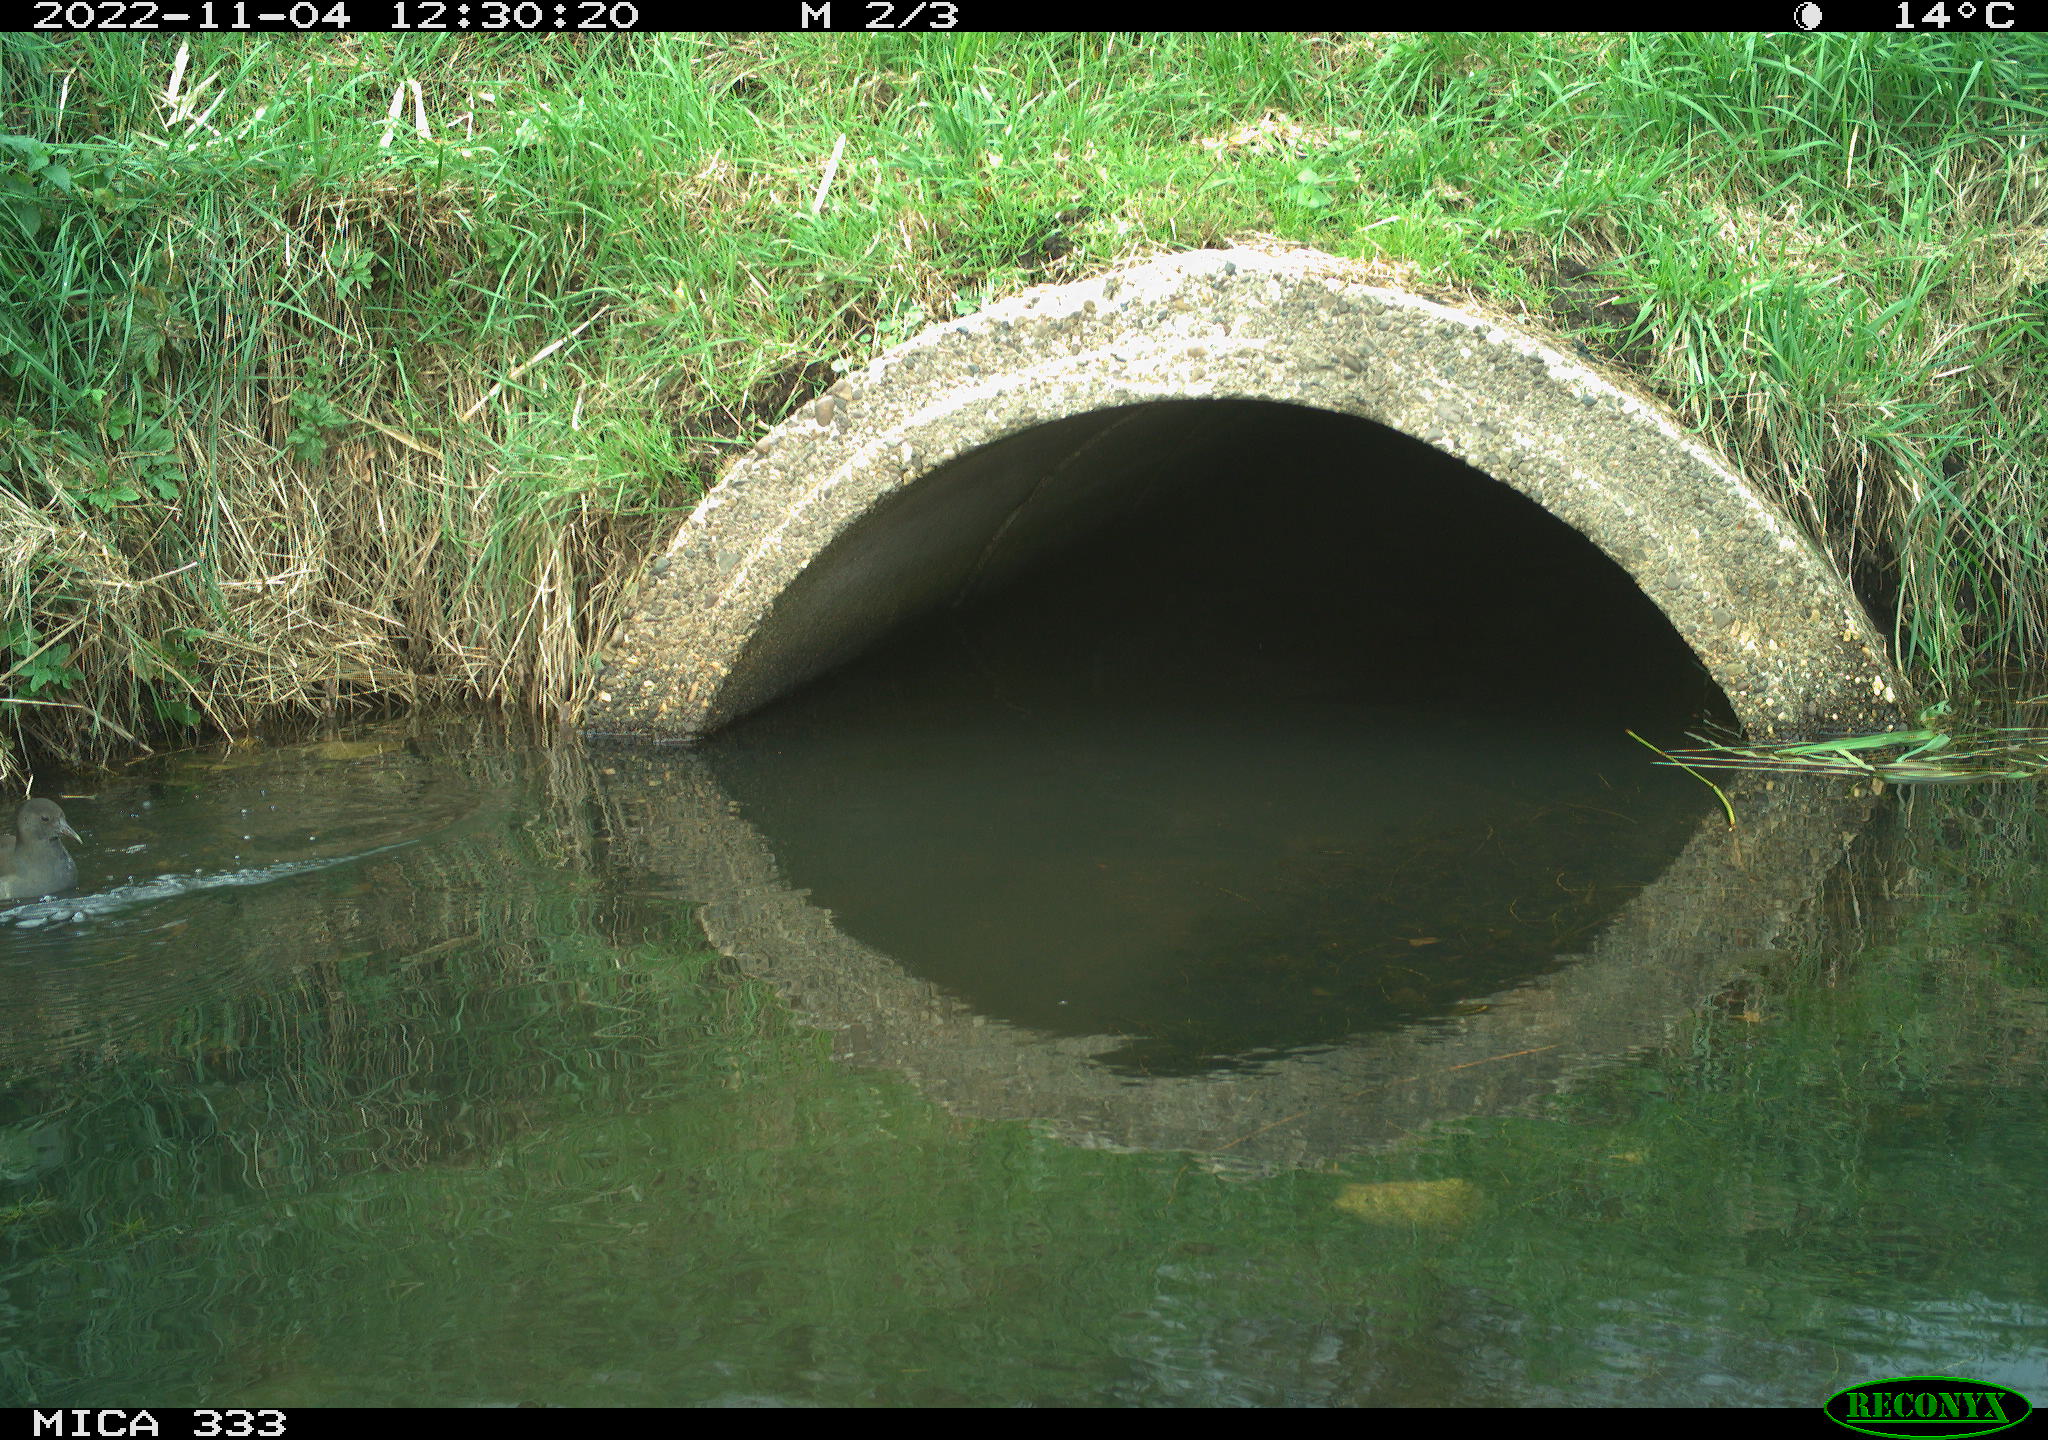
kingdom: Animalia
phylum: Chordata
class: Aves
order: Gruiformes
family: Rallidae
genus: Gallinula
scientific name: Gallinula chloropus
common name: Common moorhen
